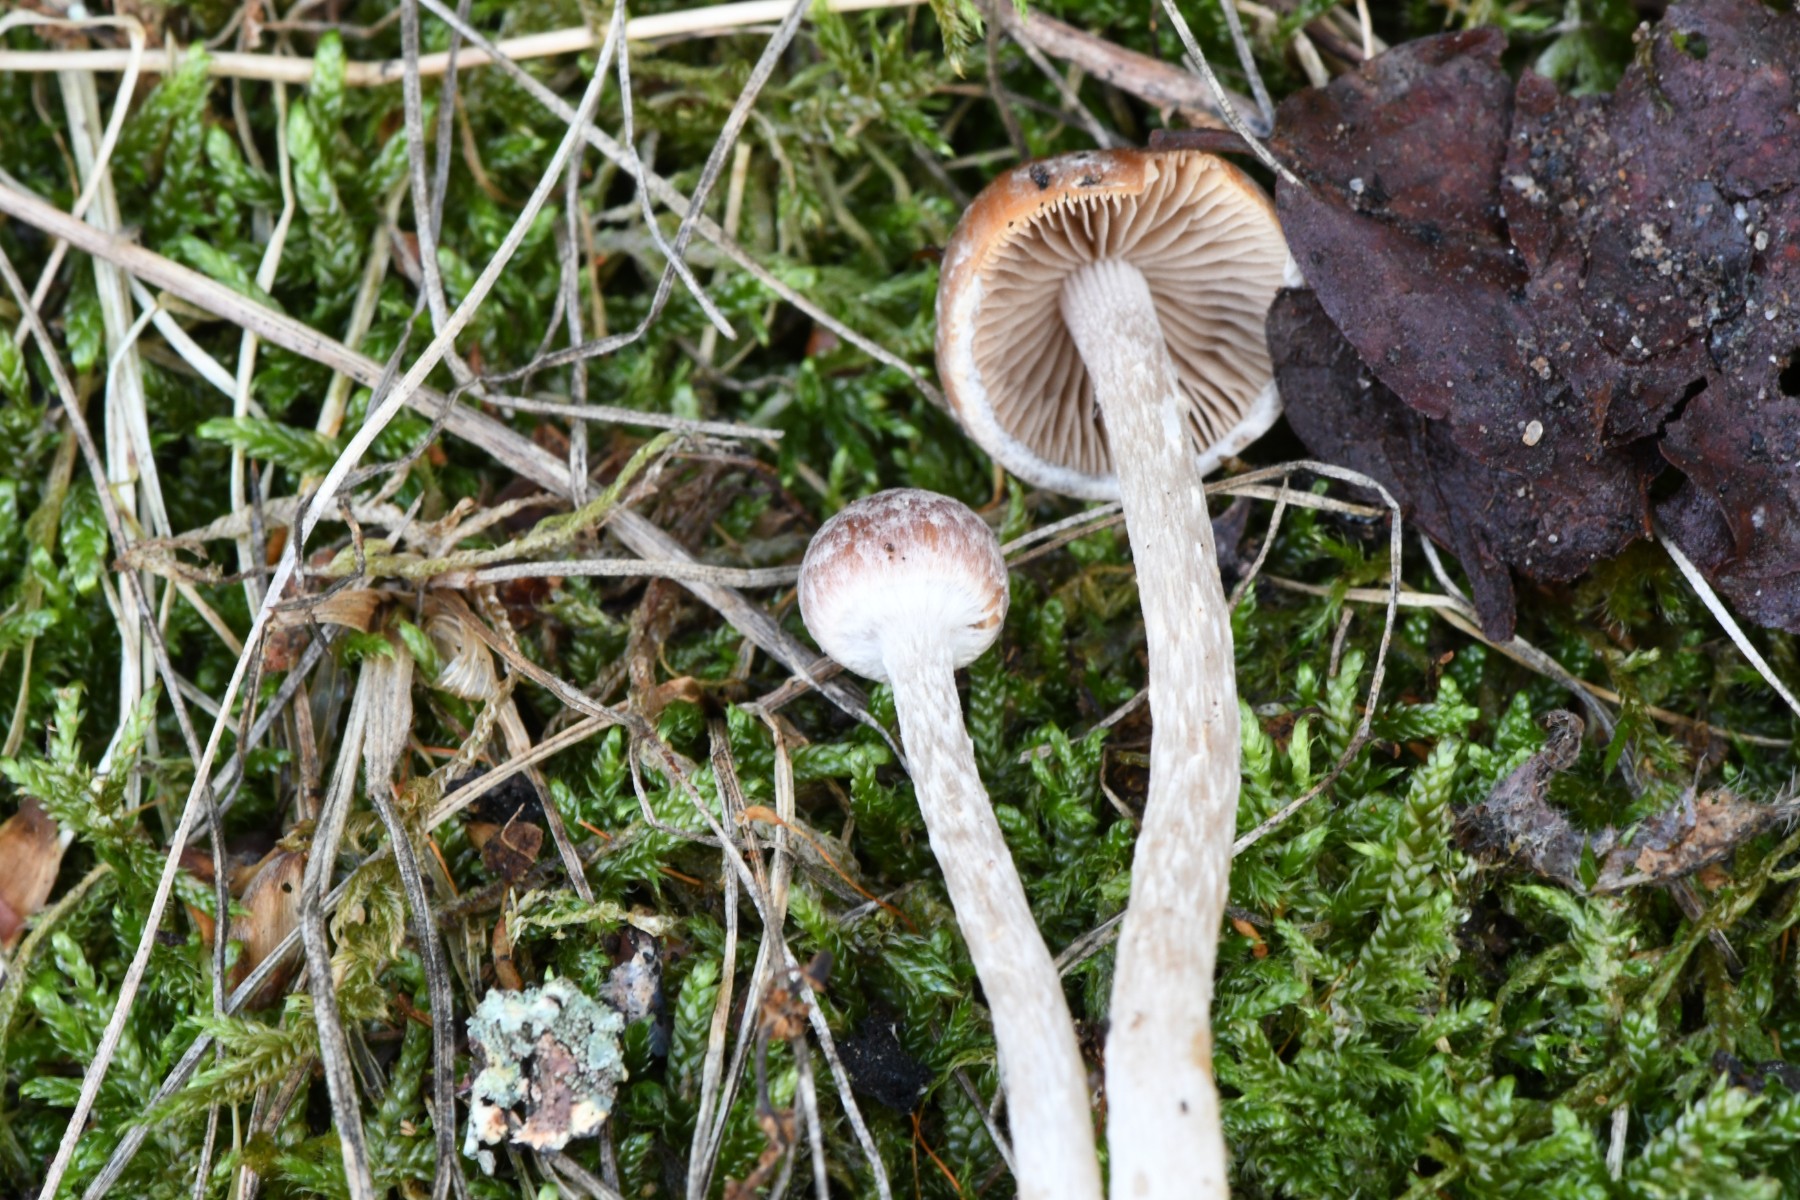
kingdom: Fungi
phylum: Basidiomycota
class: Agaricomycetes
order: Agaricales
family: Psathyrellaceae
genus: Psathyrella
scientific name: Psathyrella
